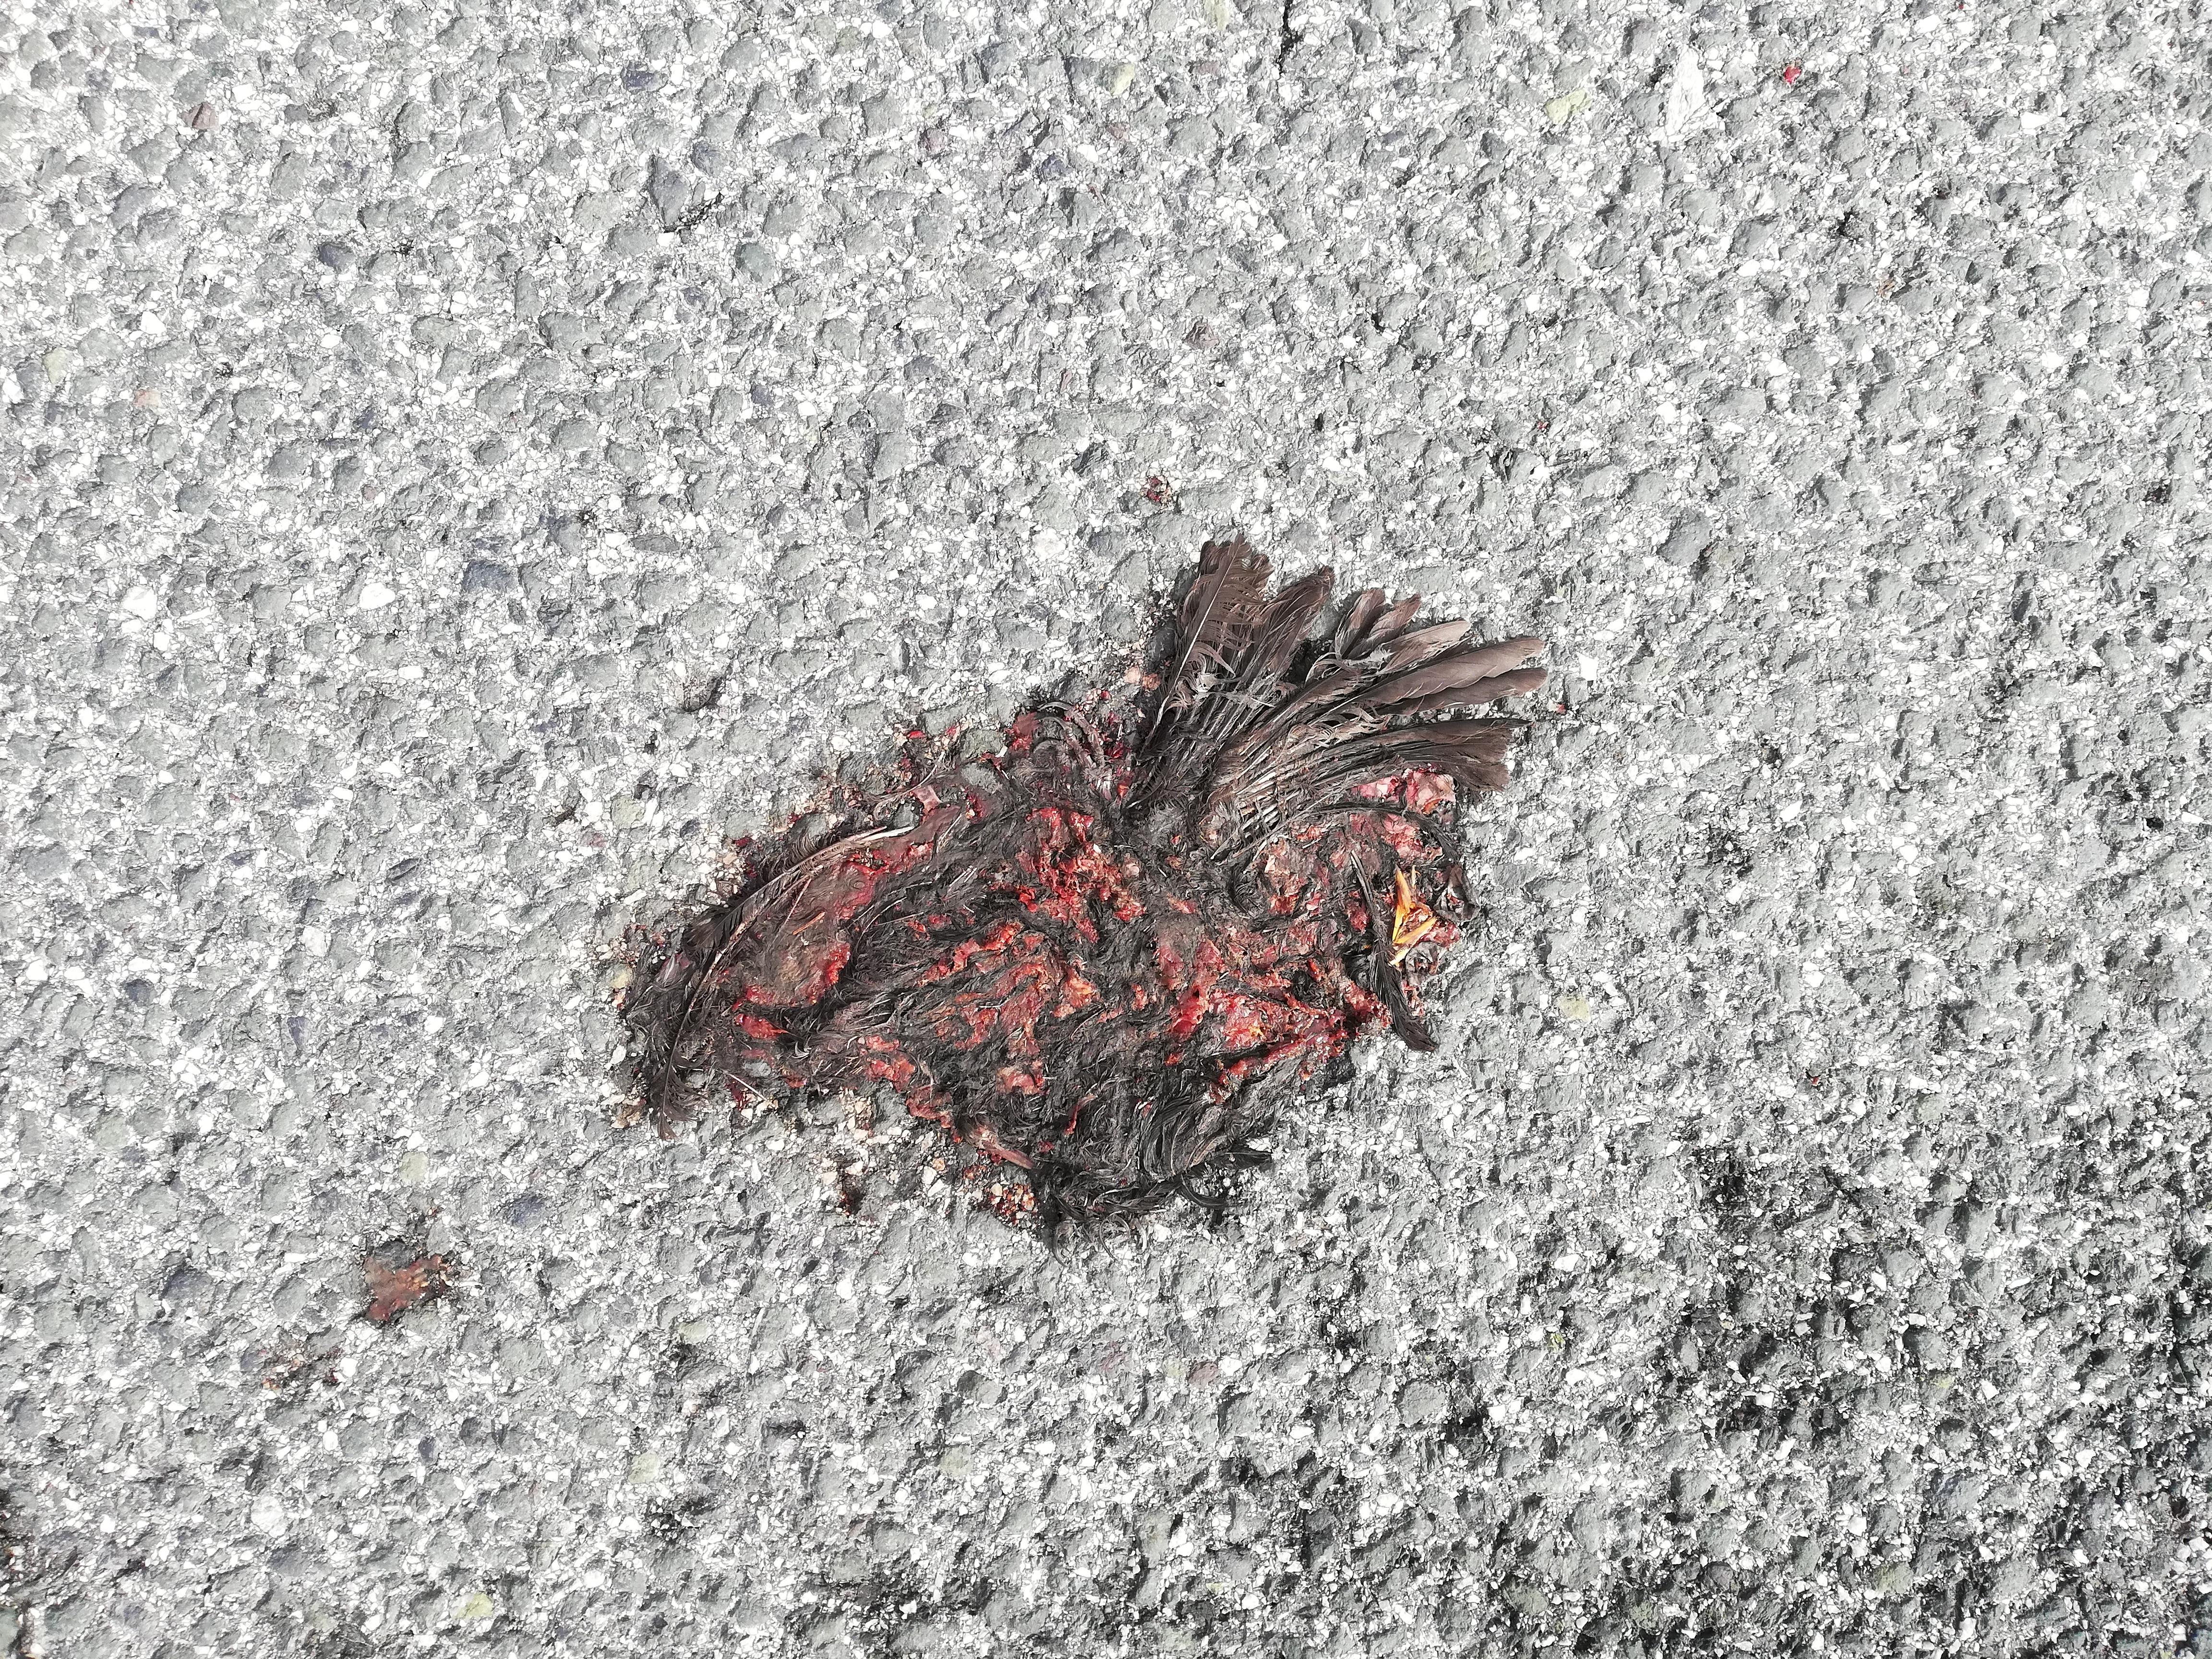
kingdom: Animalia
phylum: Chordata
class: Aves
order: Passeriformes
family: Turdidae
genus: Turdus
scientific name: Turdus merula
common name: Common blackbird
